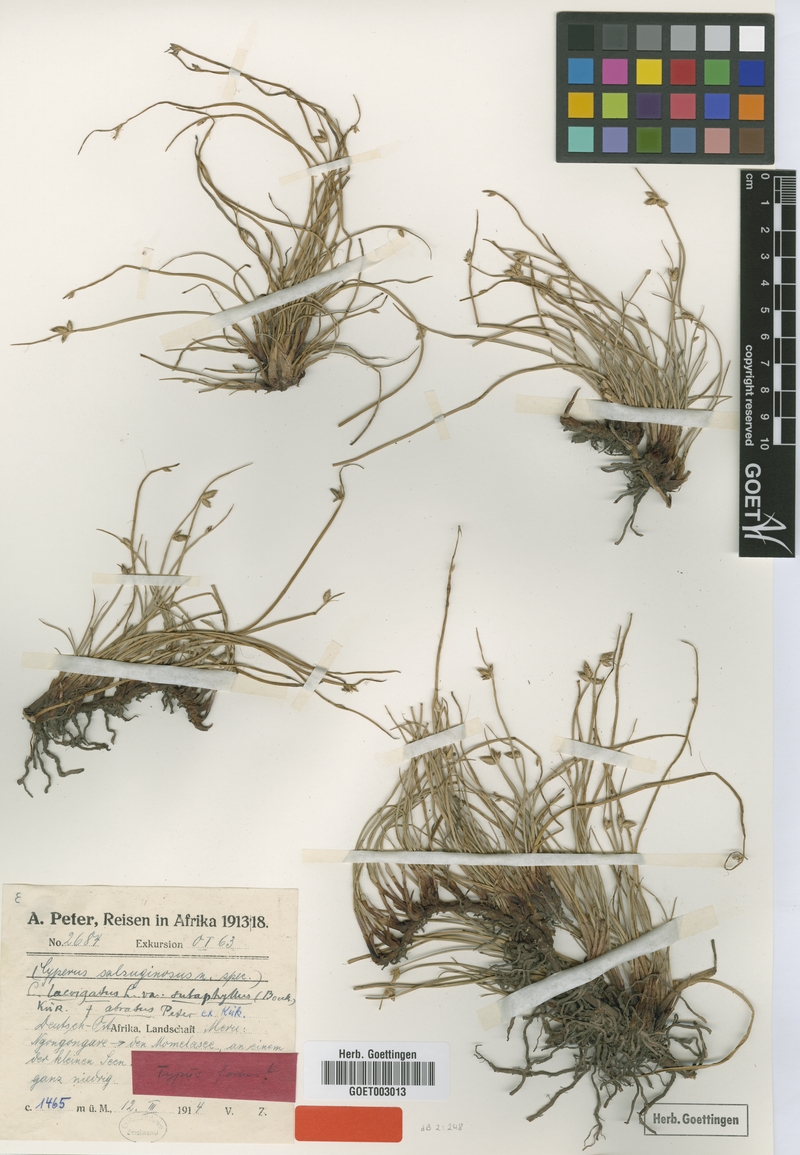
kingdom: Plantae
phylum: Tracheophyta
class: Liliopsida
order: Poales
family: Cyperaceae
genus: Cyperus
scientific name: Cyperus laevigatus
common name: Smooth flat sedge
